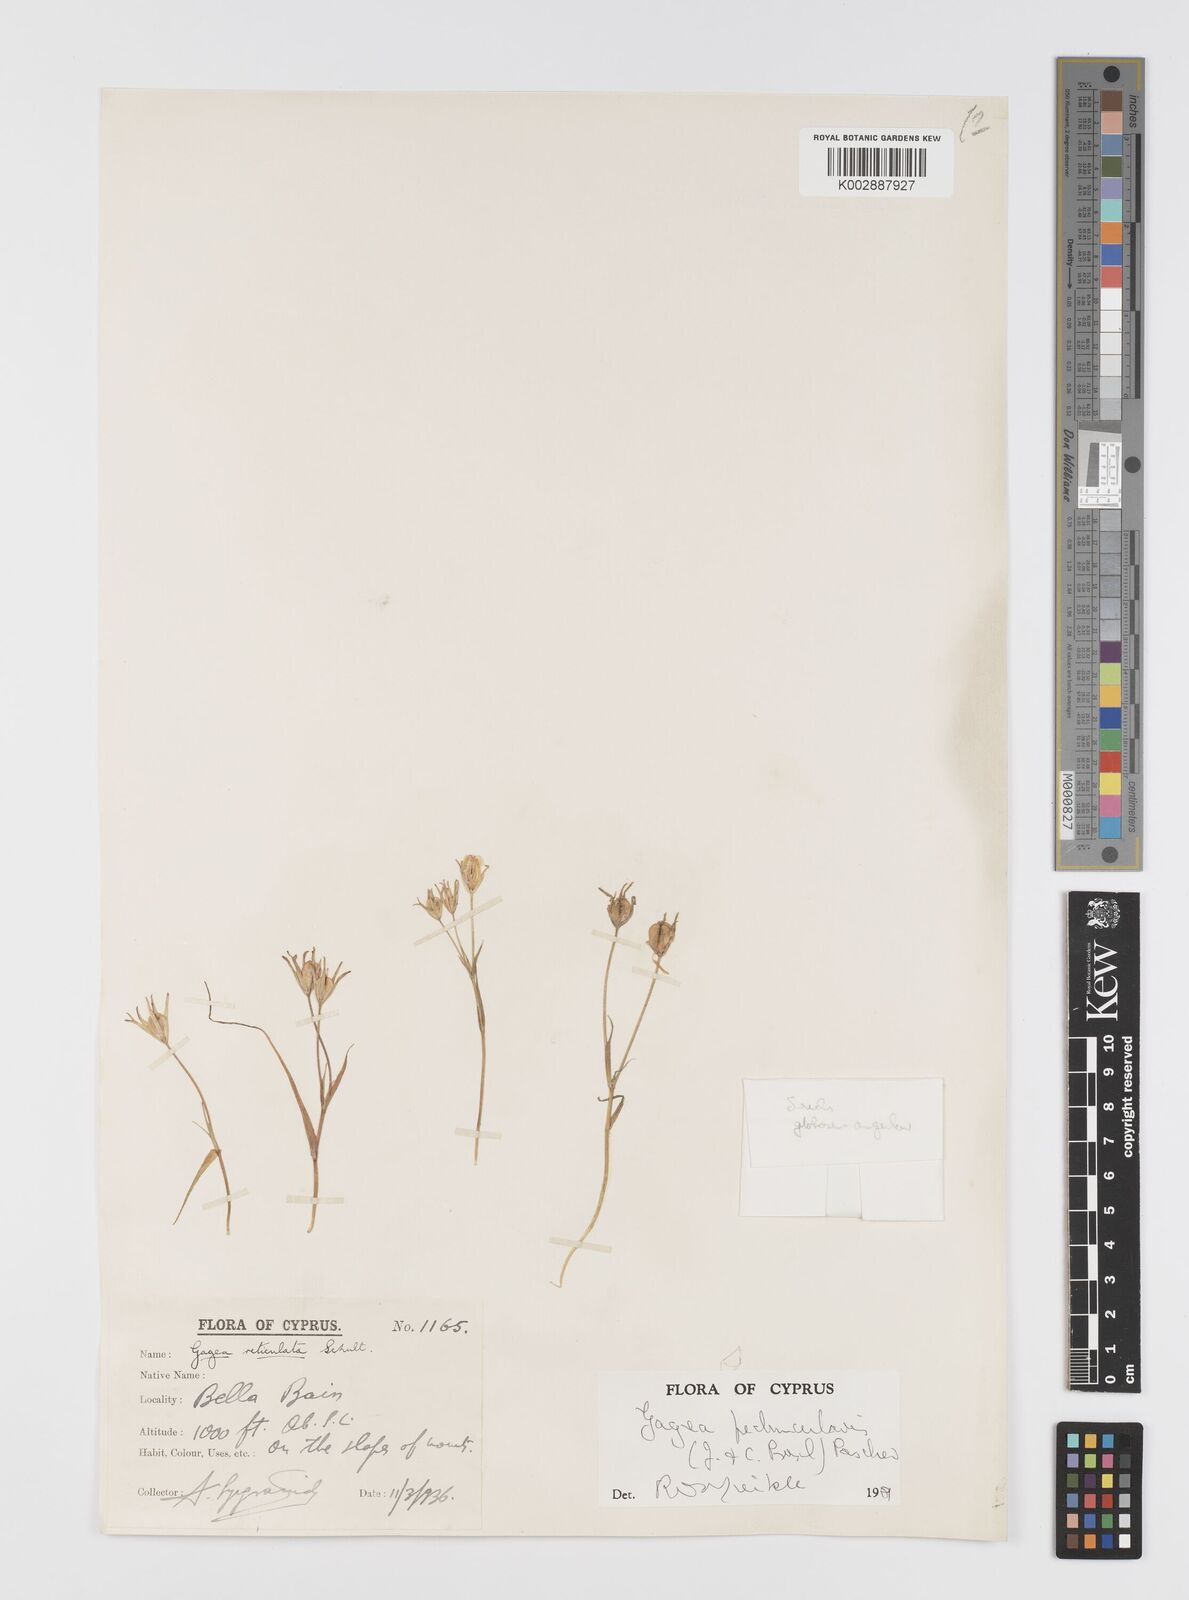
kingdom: Plantae
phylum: Tracheophyta
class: Liliopsida
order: Liliales
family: Liliaceae
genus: Gagea
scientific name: Gagea peduncularis
